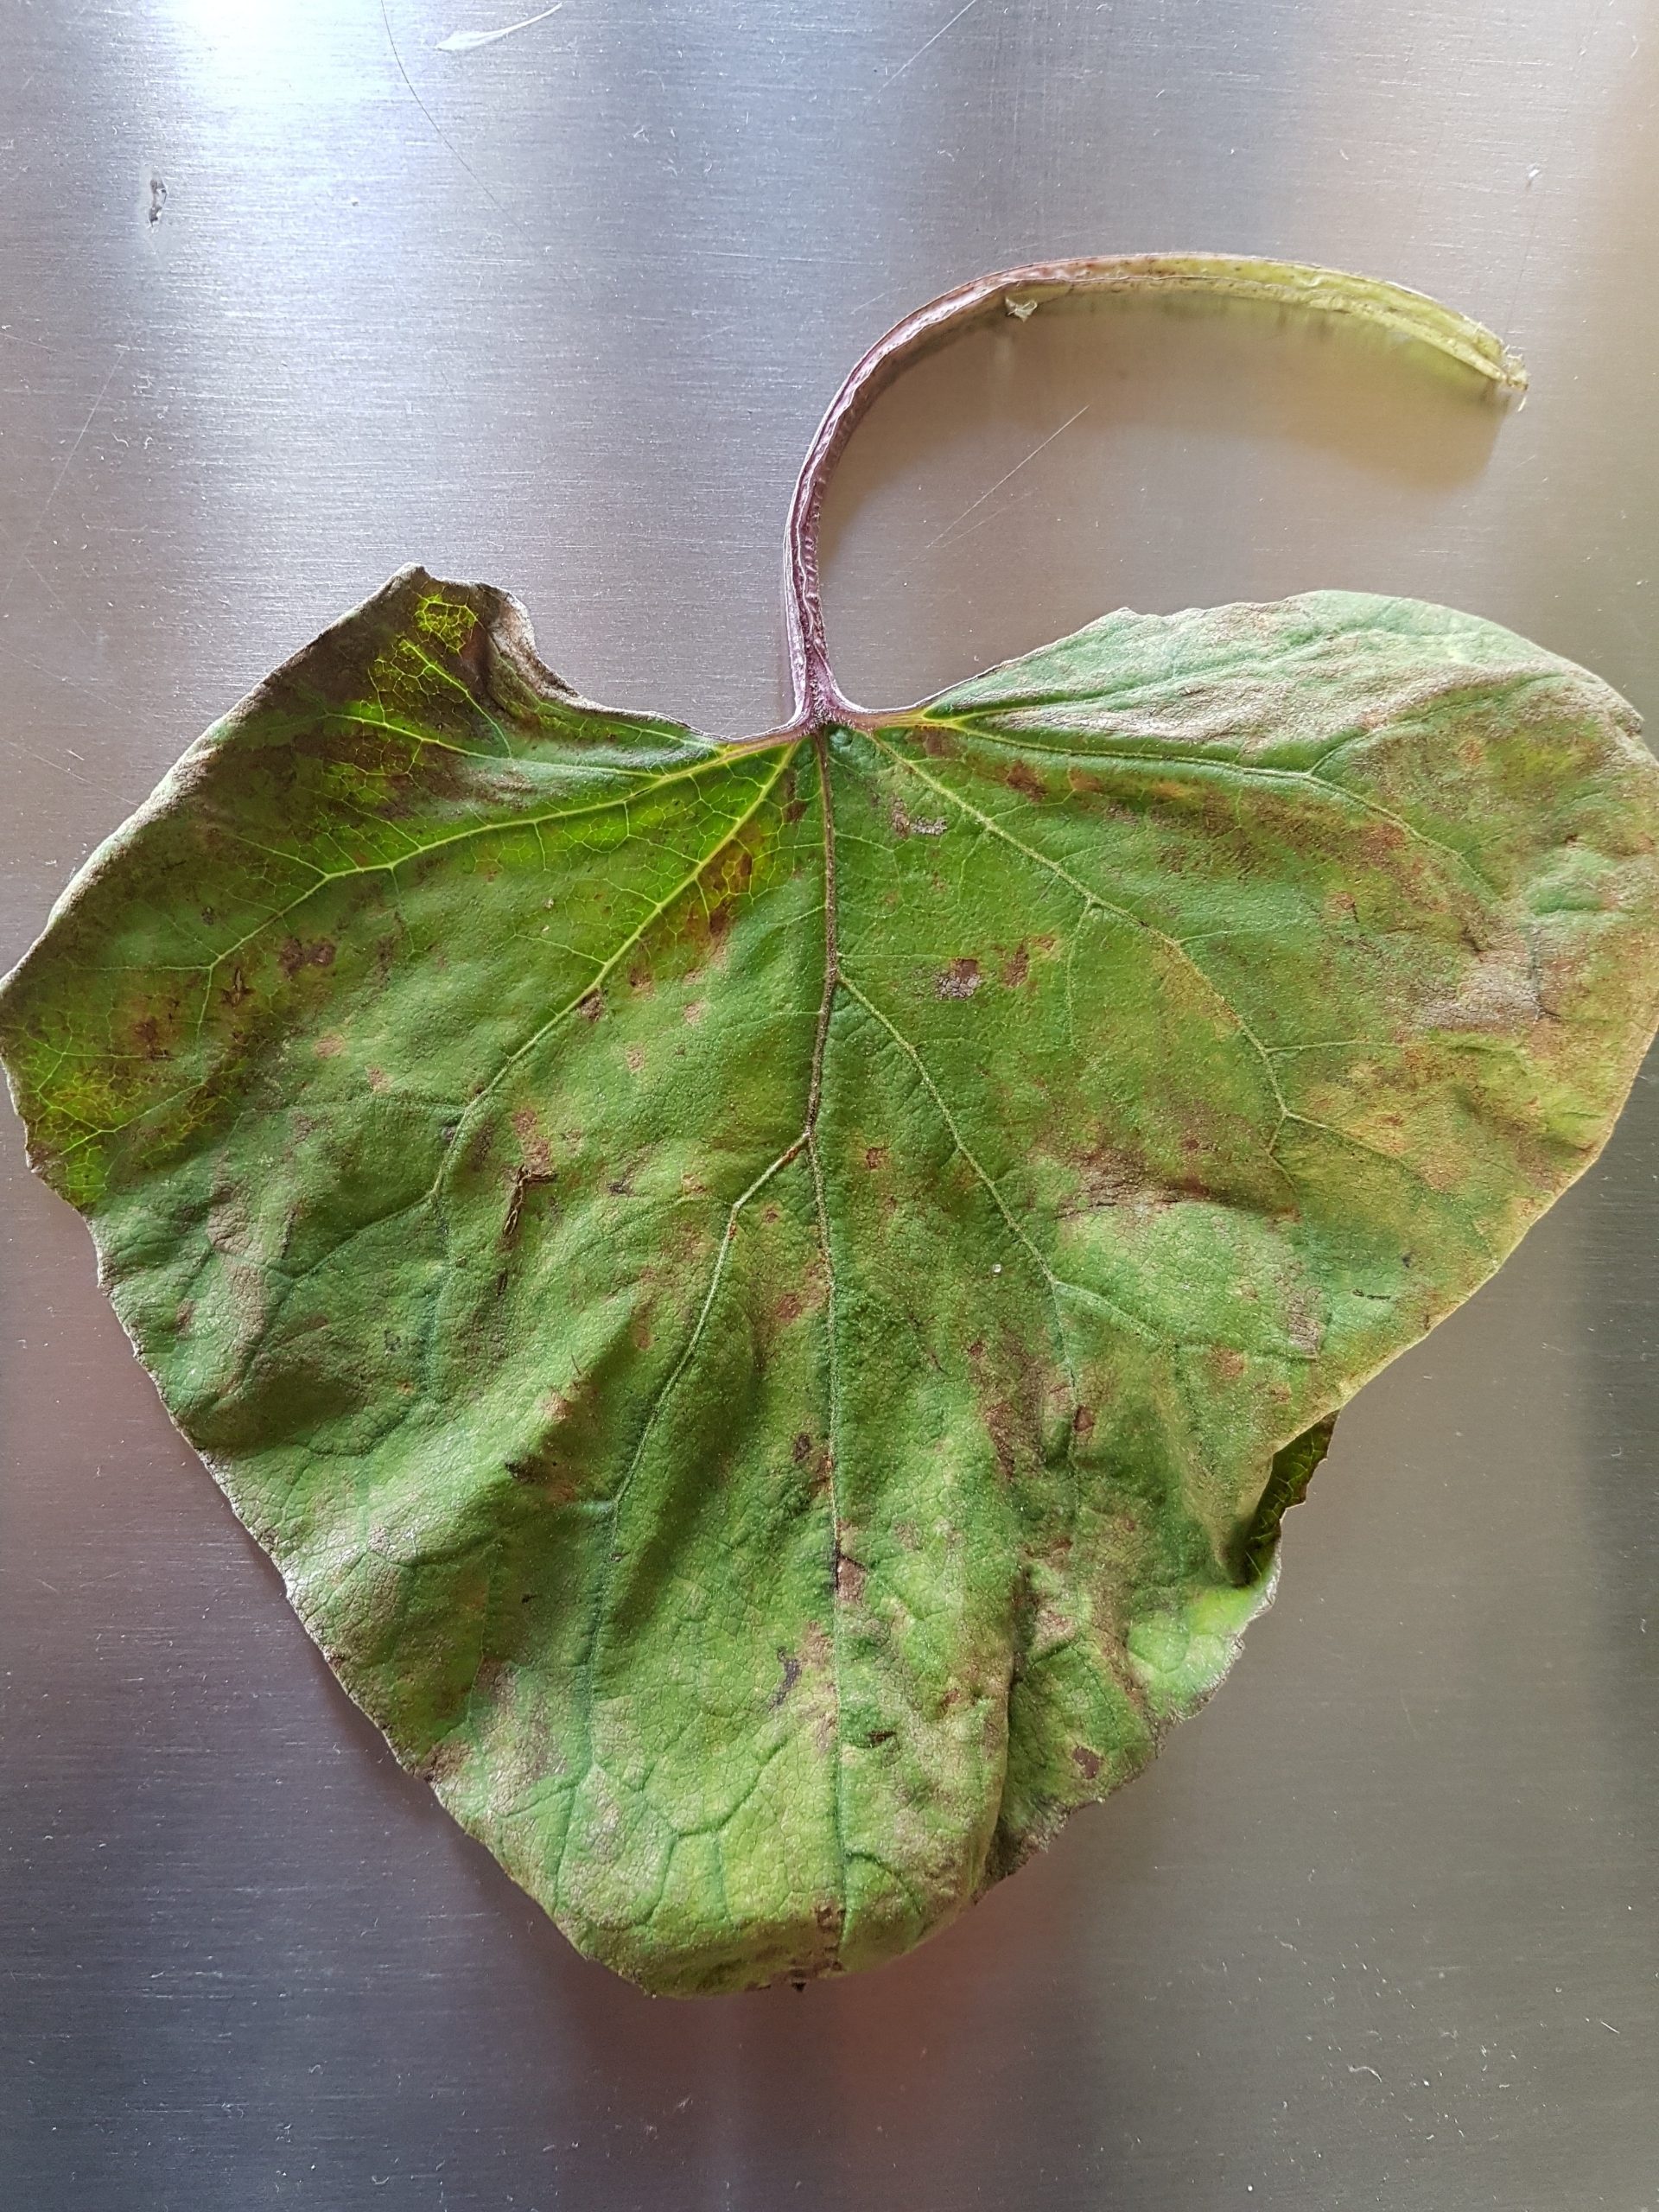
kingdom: Fungi
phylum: Basidiomycota
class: Pucciniomycetes
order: Pucciniales
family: Coleosporiaceae
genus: Coleosporium
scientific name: Coleosporium tussilaginis
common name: Almindelig fyrrenålerust
